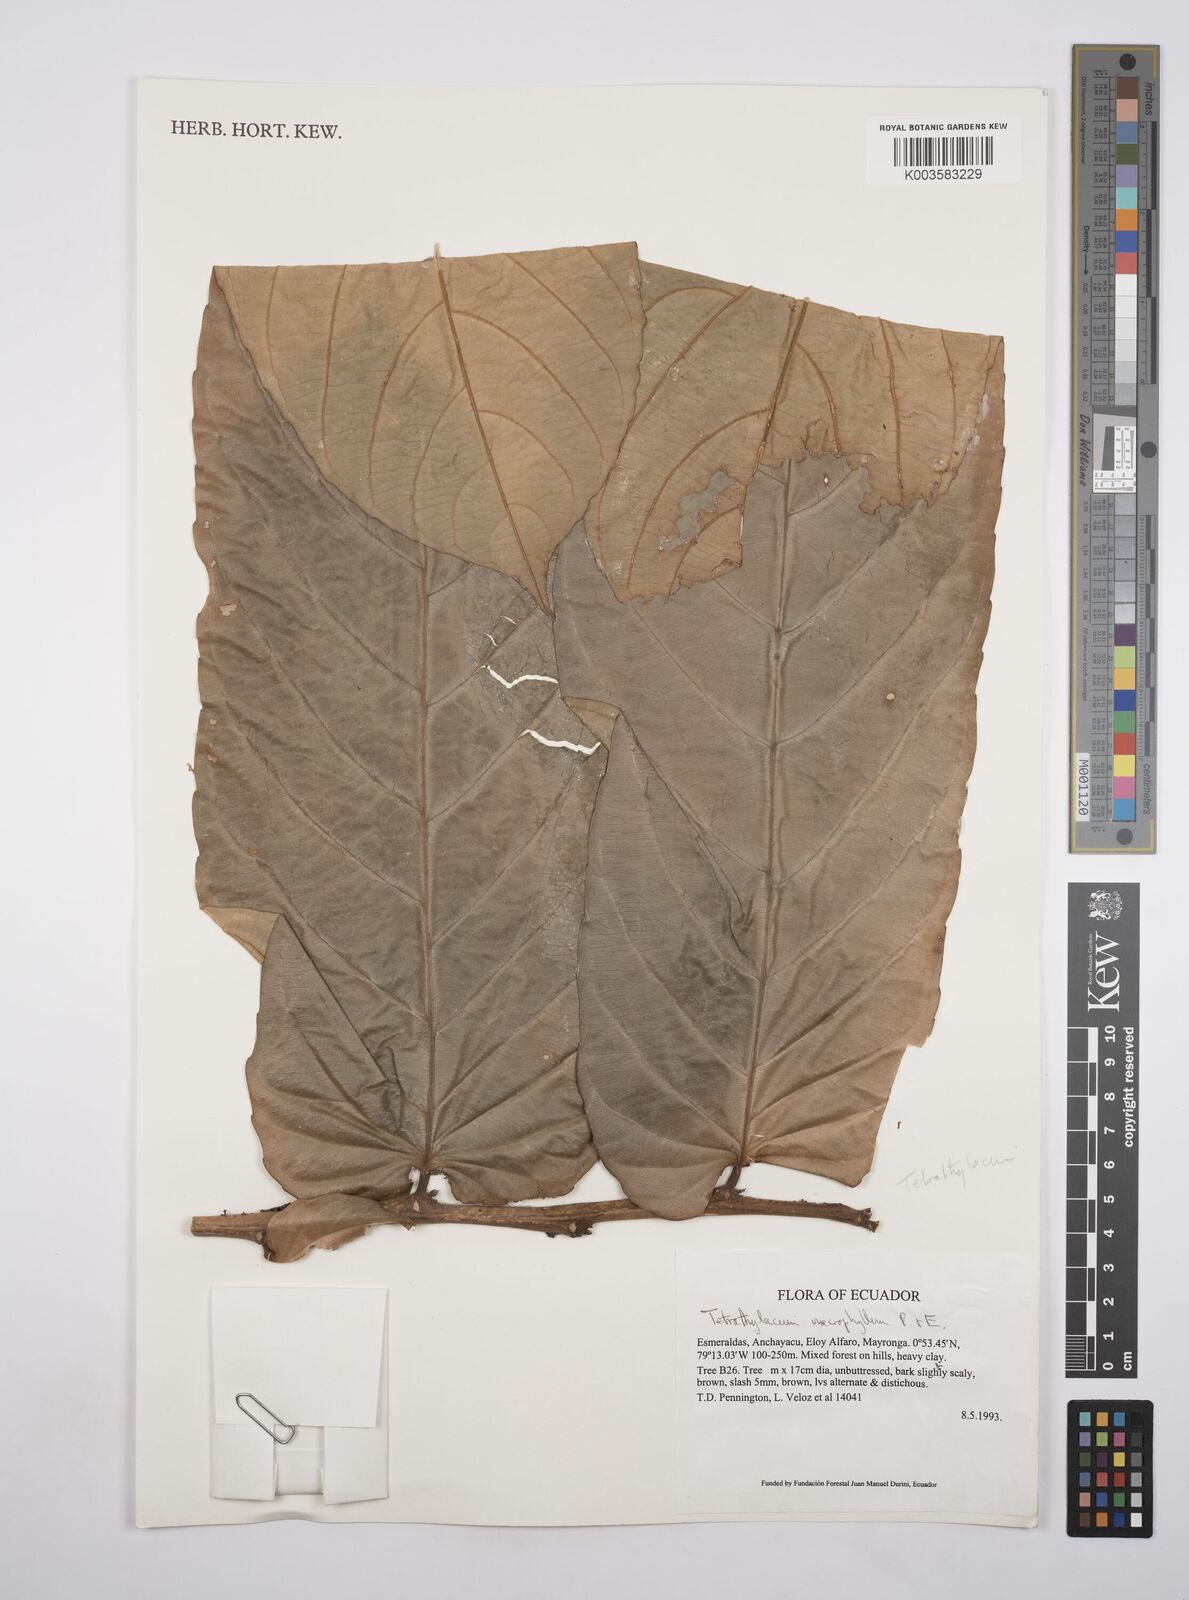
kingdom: Plantae
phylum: Tracheophyta
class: Magnoliopsida
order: Malpighiales
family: Salicaceae
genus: Tetrathylacium
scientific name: Tetrathylacium macrophyllum
